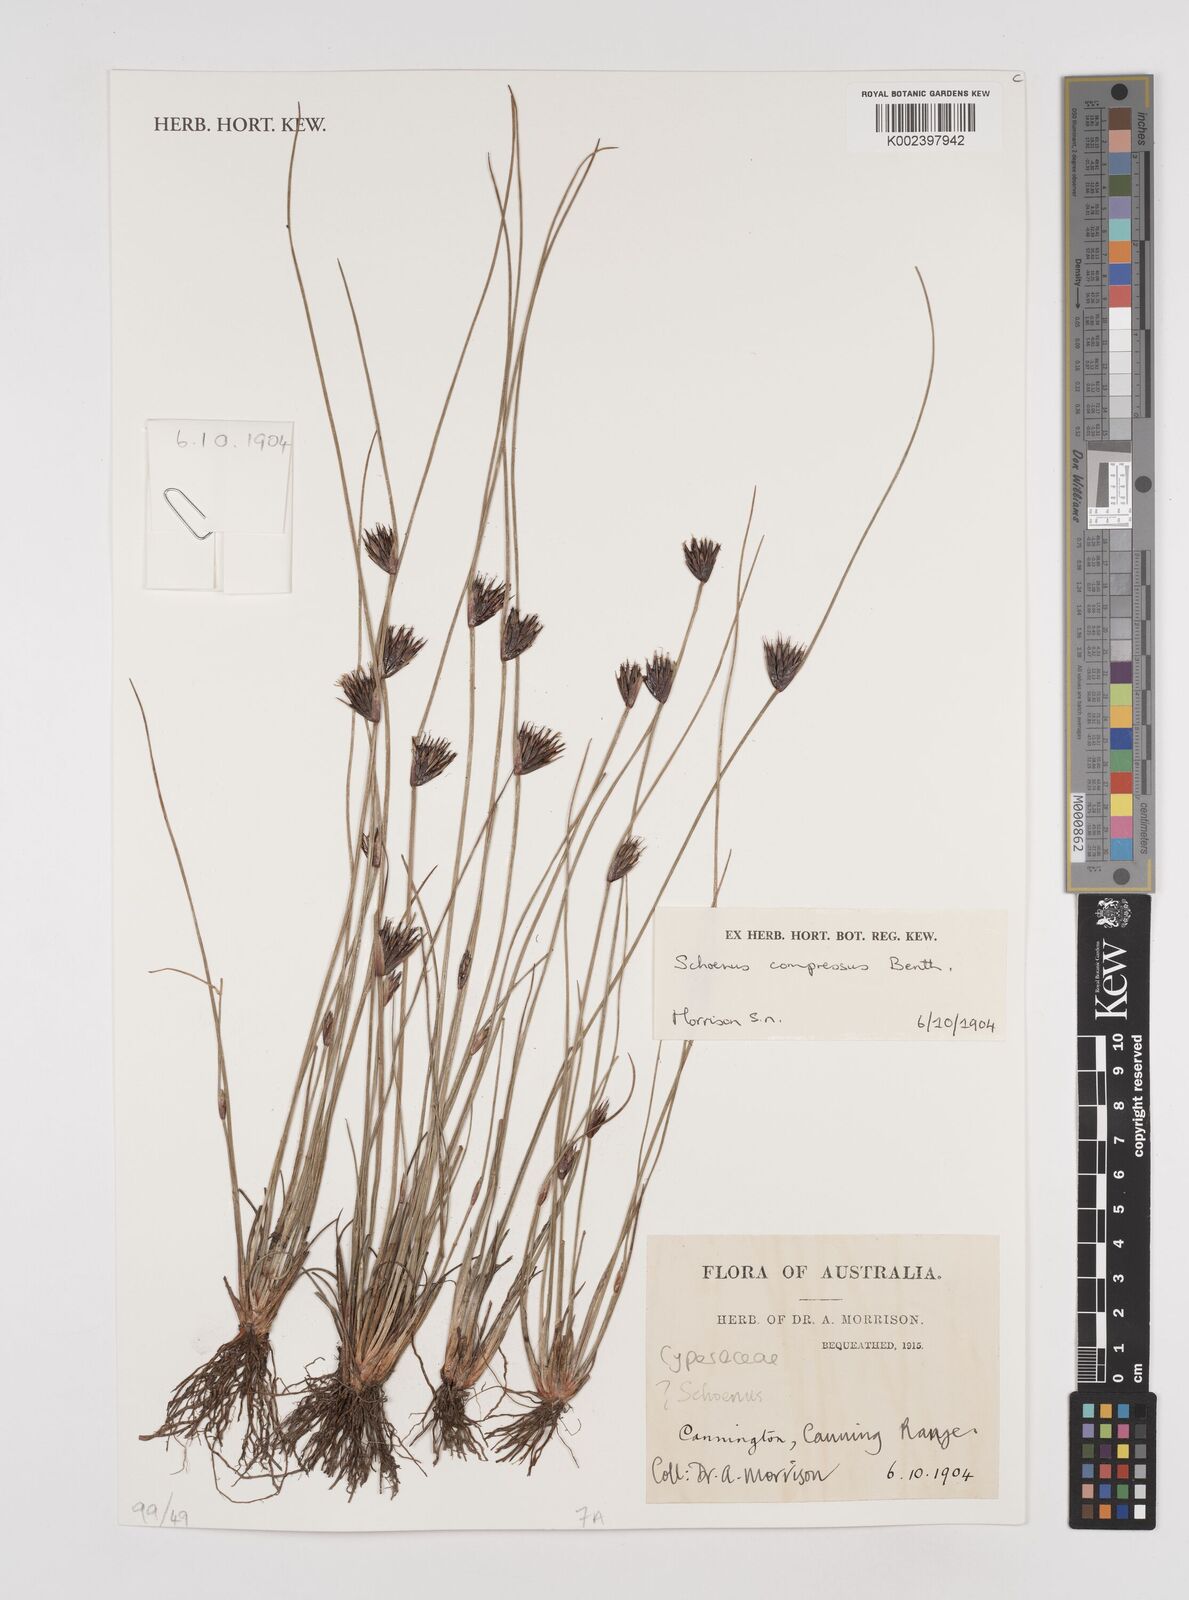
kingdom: Plantae
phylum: Tracheophyta
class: Liliopsida
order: Poales
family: Cyperaceae
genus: Schoenus
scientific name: Schoenus benthamii
